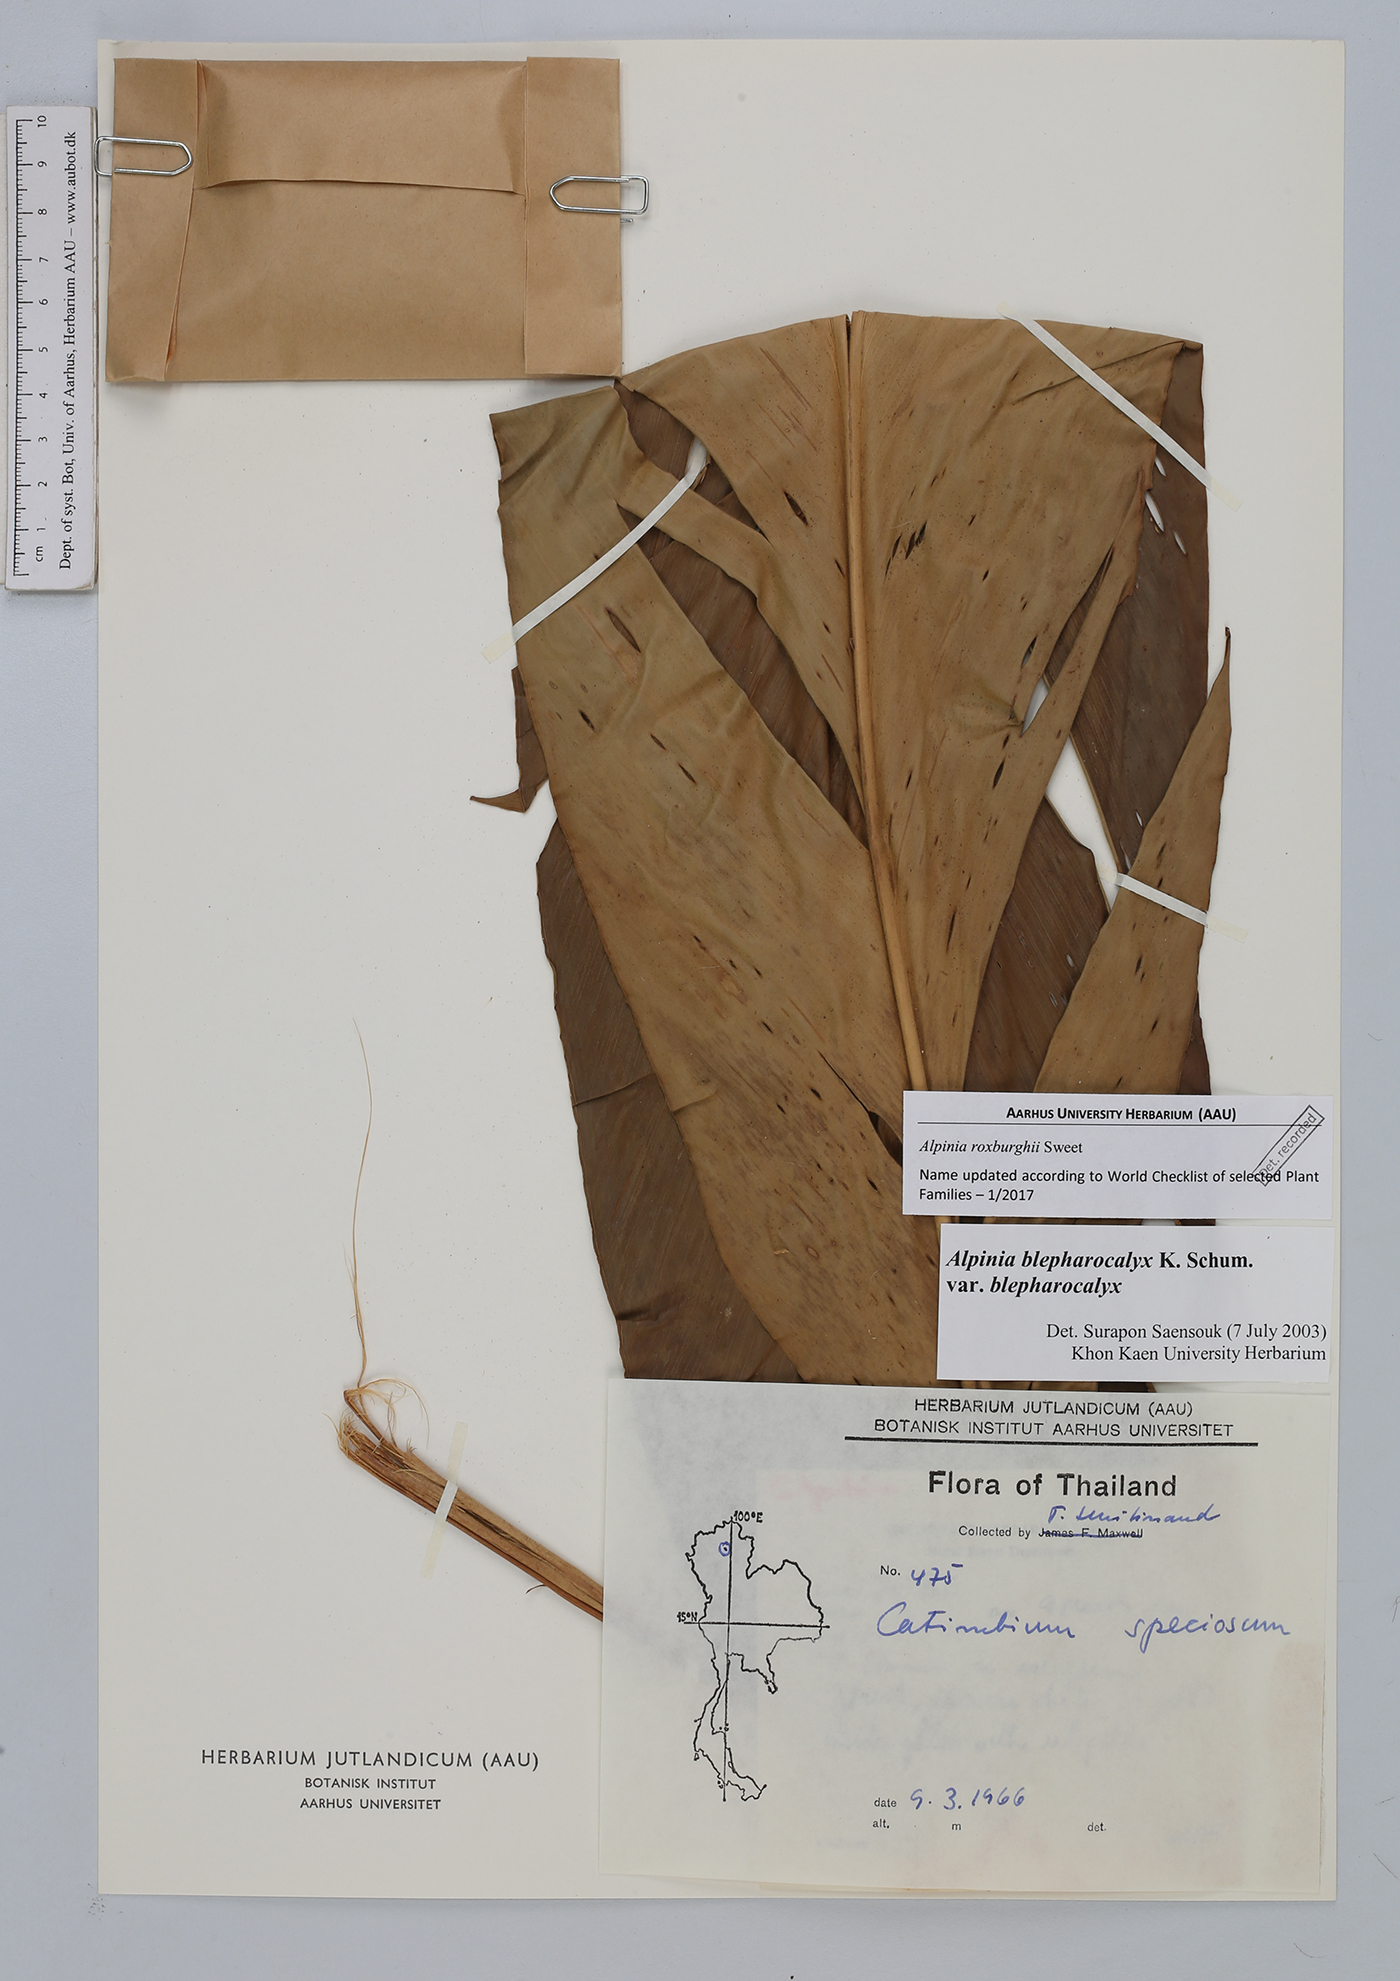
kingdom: Plantae
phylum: Tracheophyta
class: Liliopsida
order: Zingiberales
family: Zingiberaceae
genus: Alpinia
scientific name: Alpinia roxburghii
